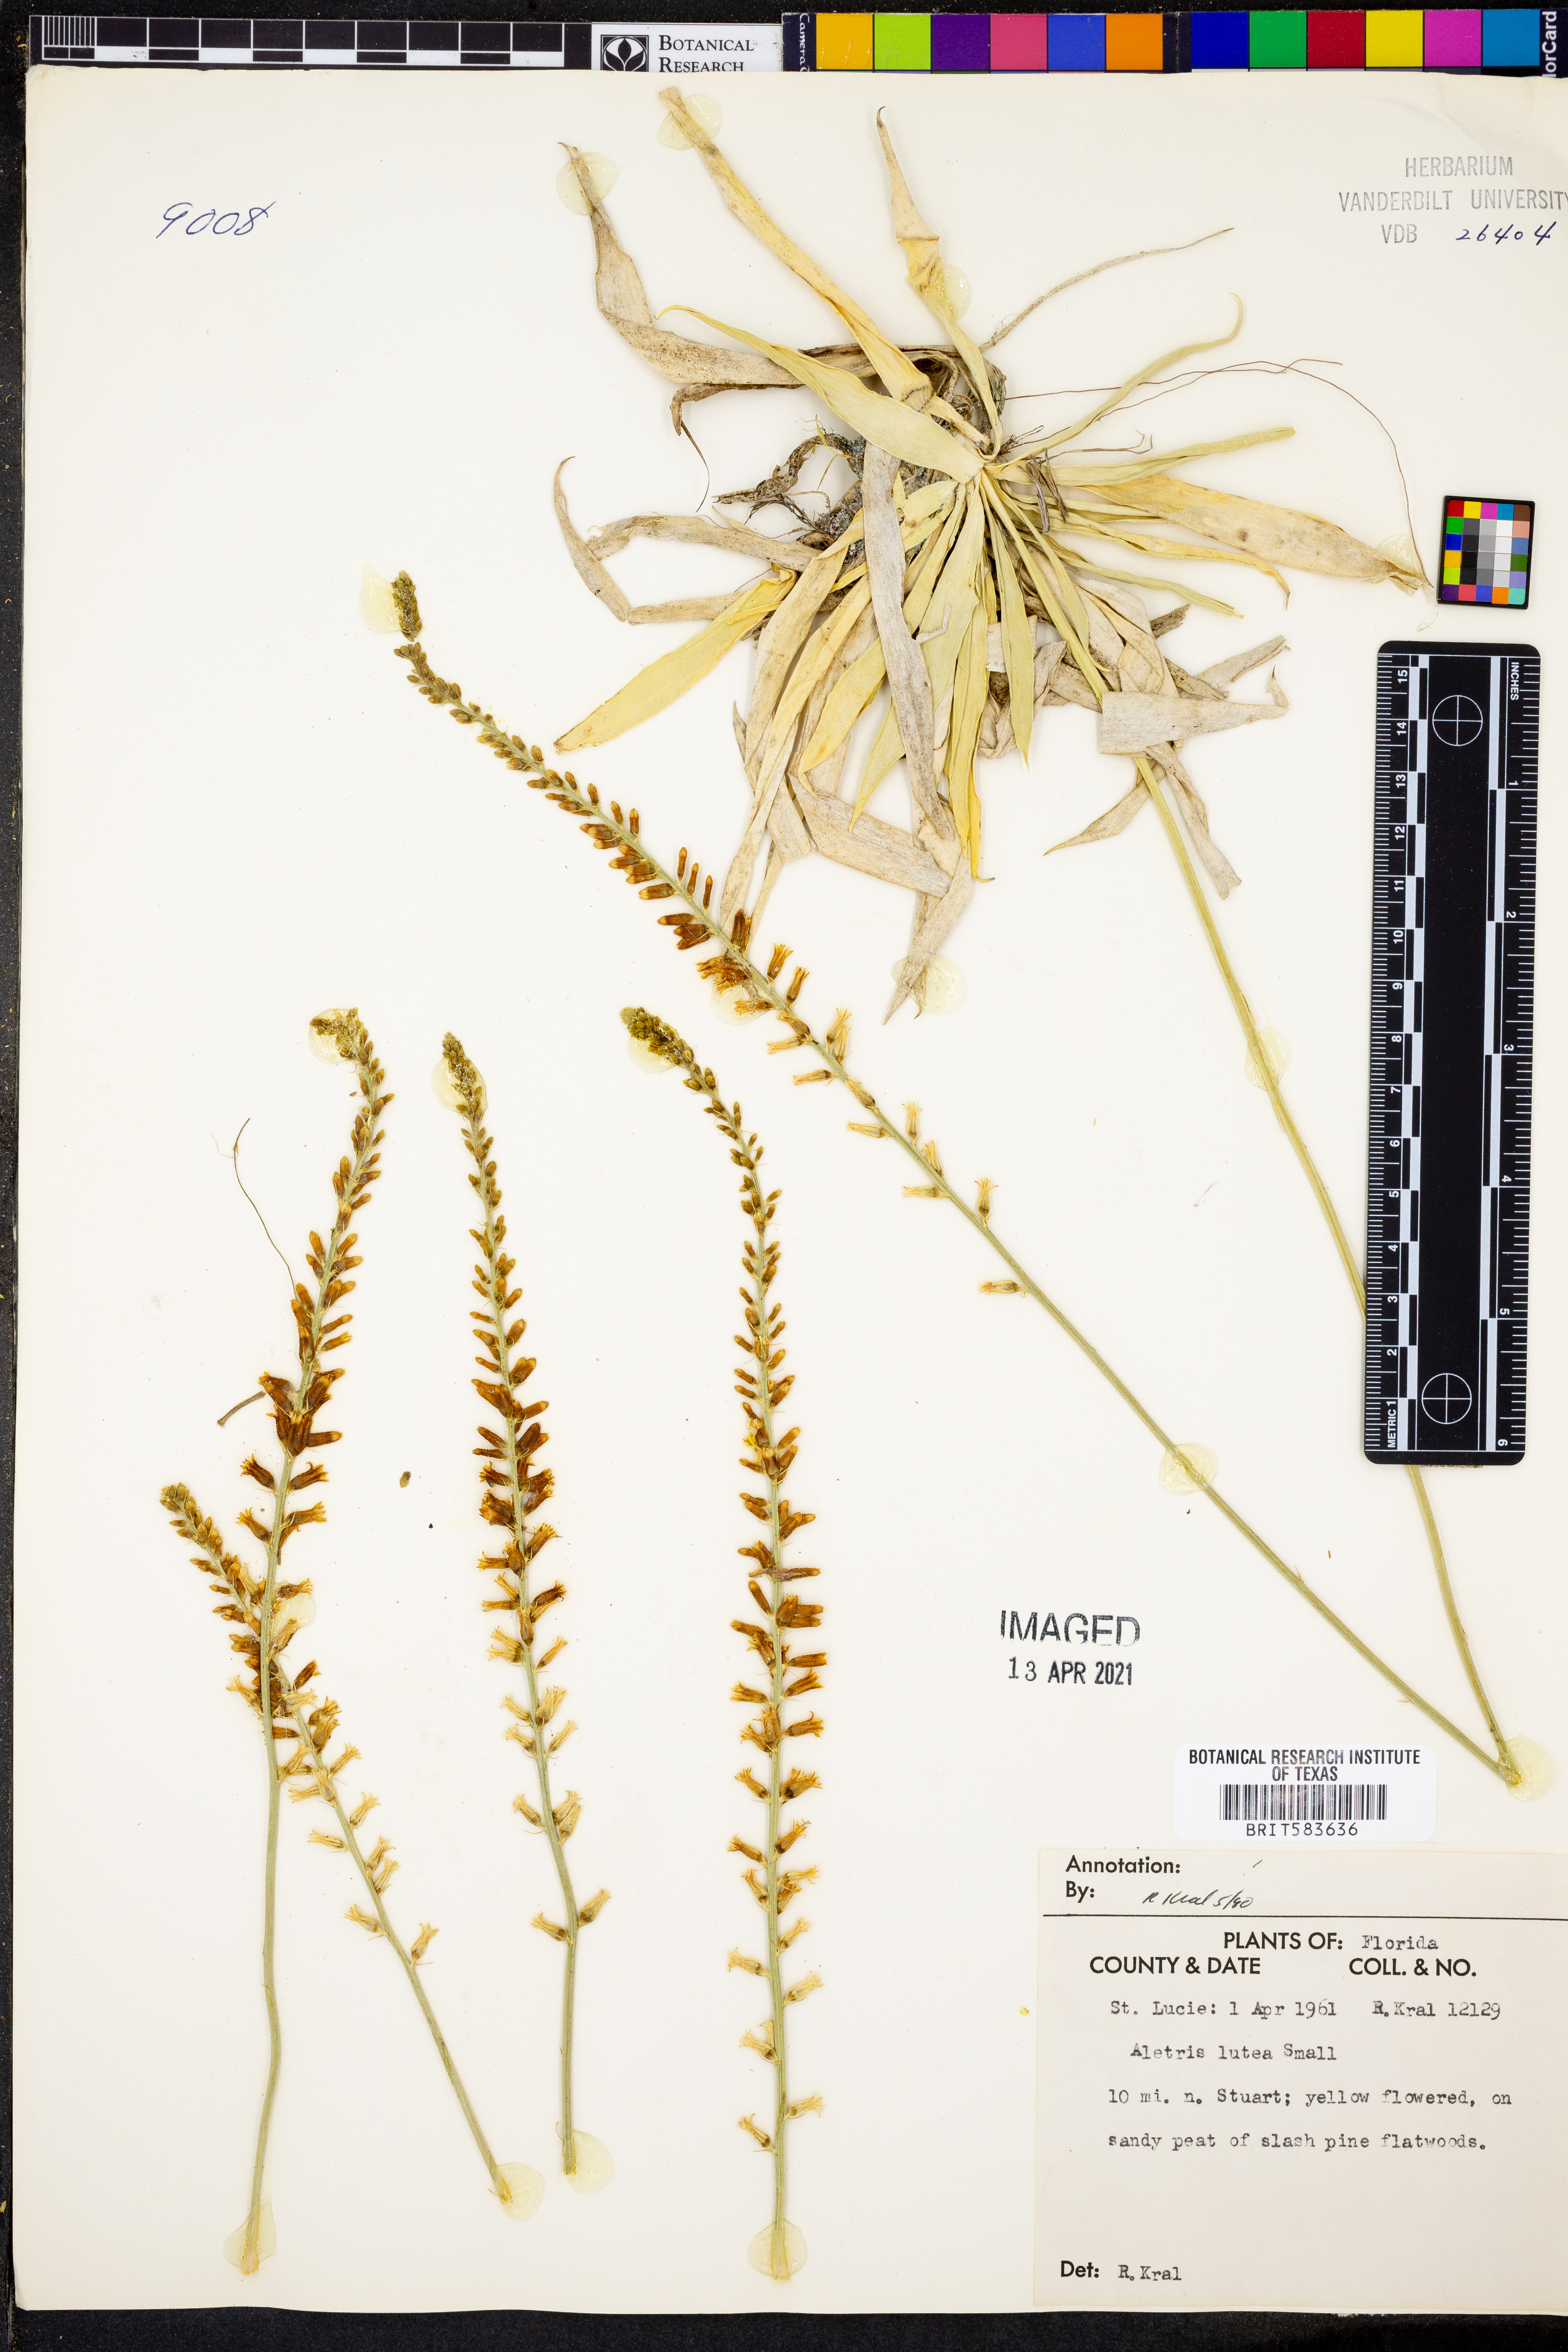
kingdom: Plantae
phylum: Tracheophyta
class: Liliopsida
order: Dioscoreales
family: Nartheciaceae
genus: Aletris
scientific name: Aletris lutea
